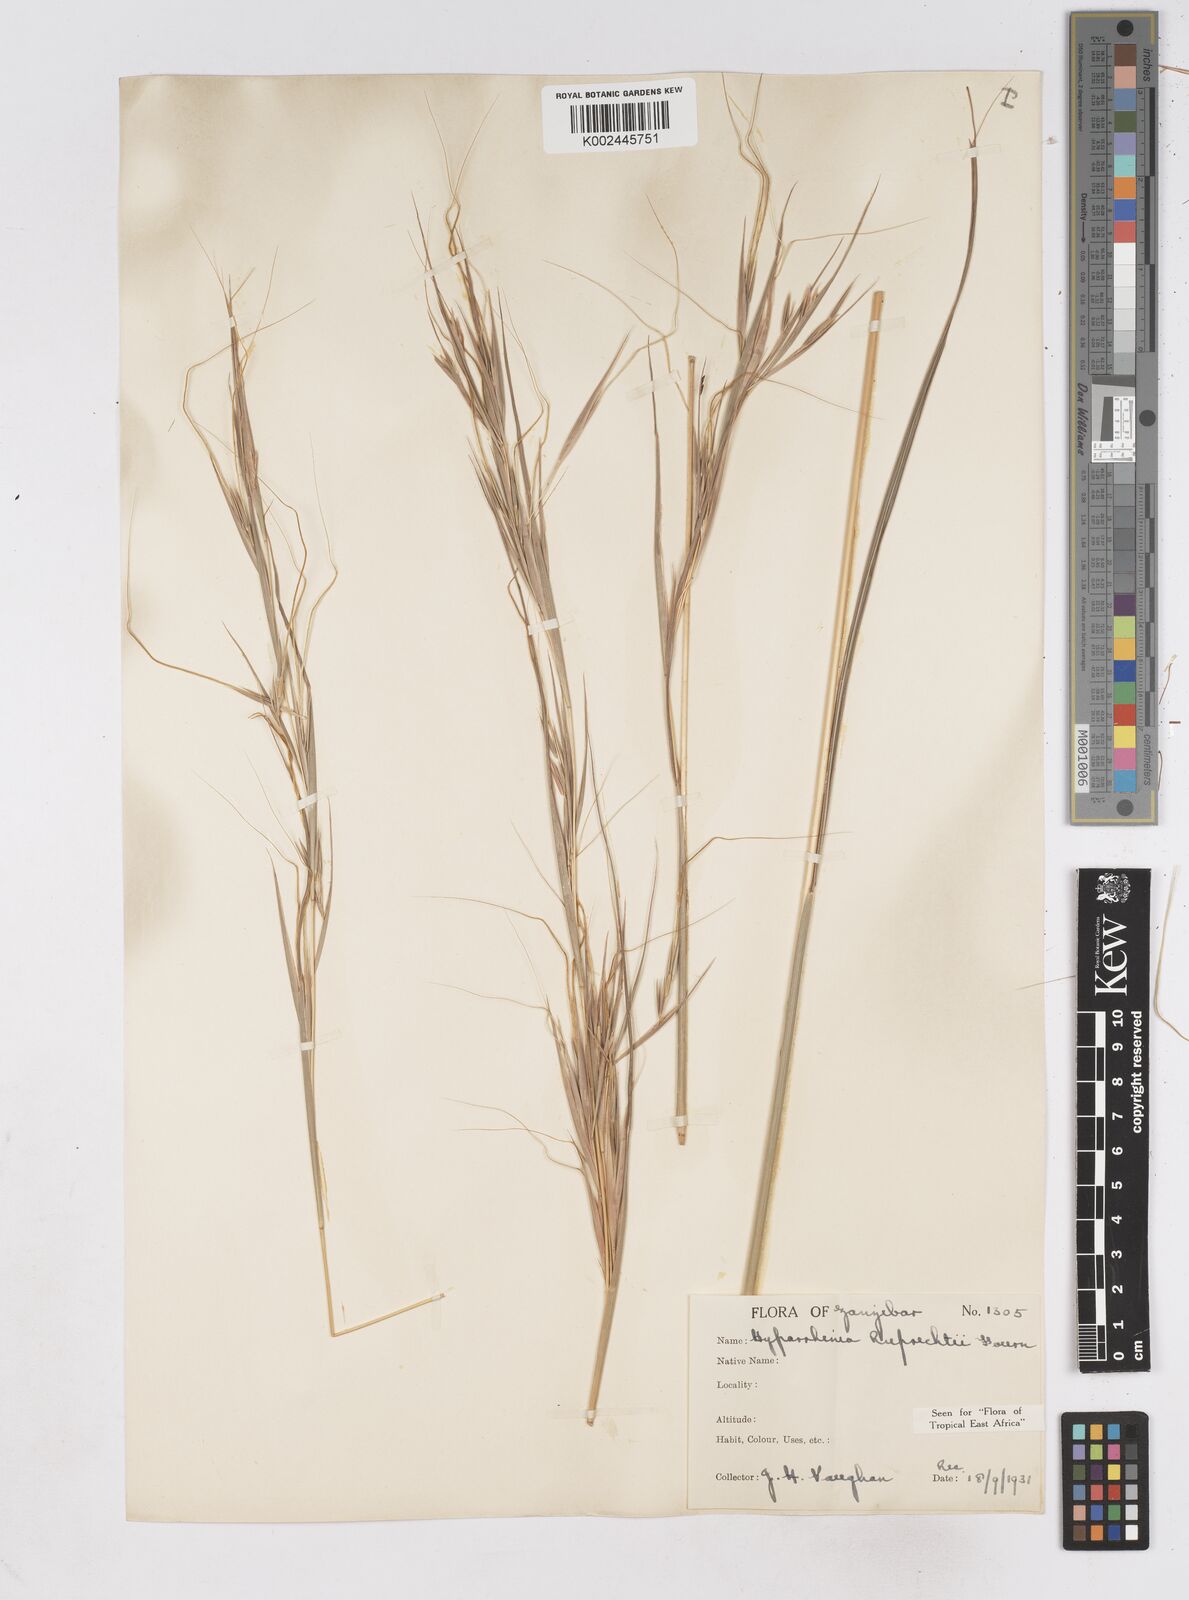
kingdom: Plantae
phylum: Tracheophyta
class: Liliopsida
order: Poales
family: Poaceae
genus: Hyperthelia
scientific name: Hyperthelia dissoluta
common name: Yellow thatching grass
